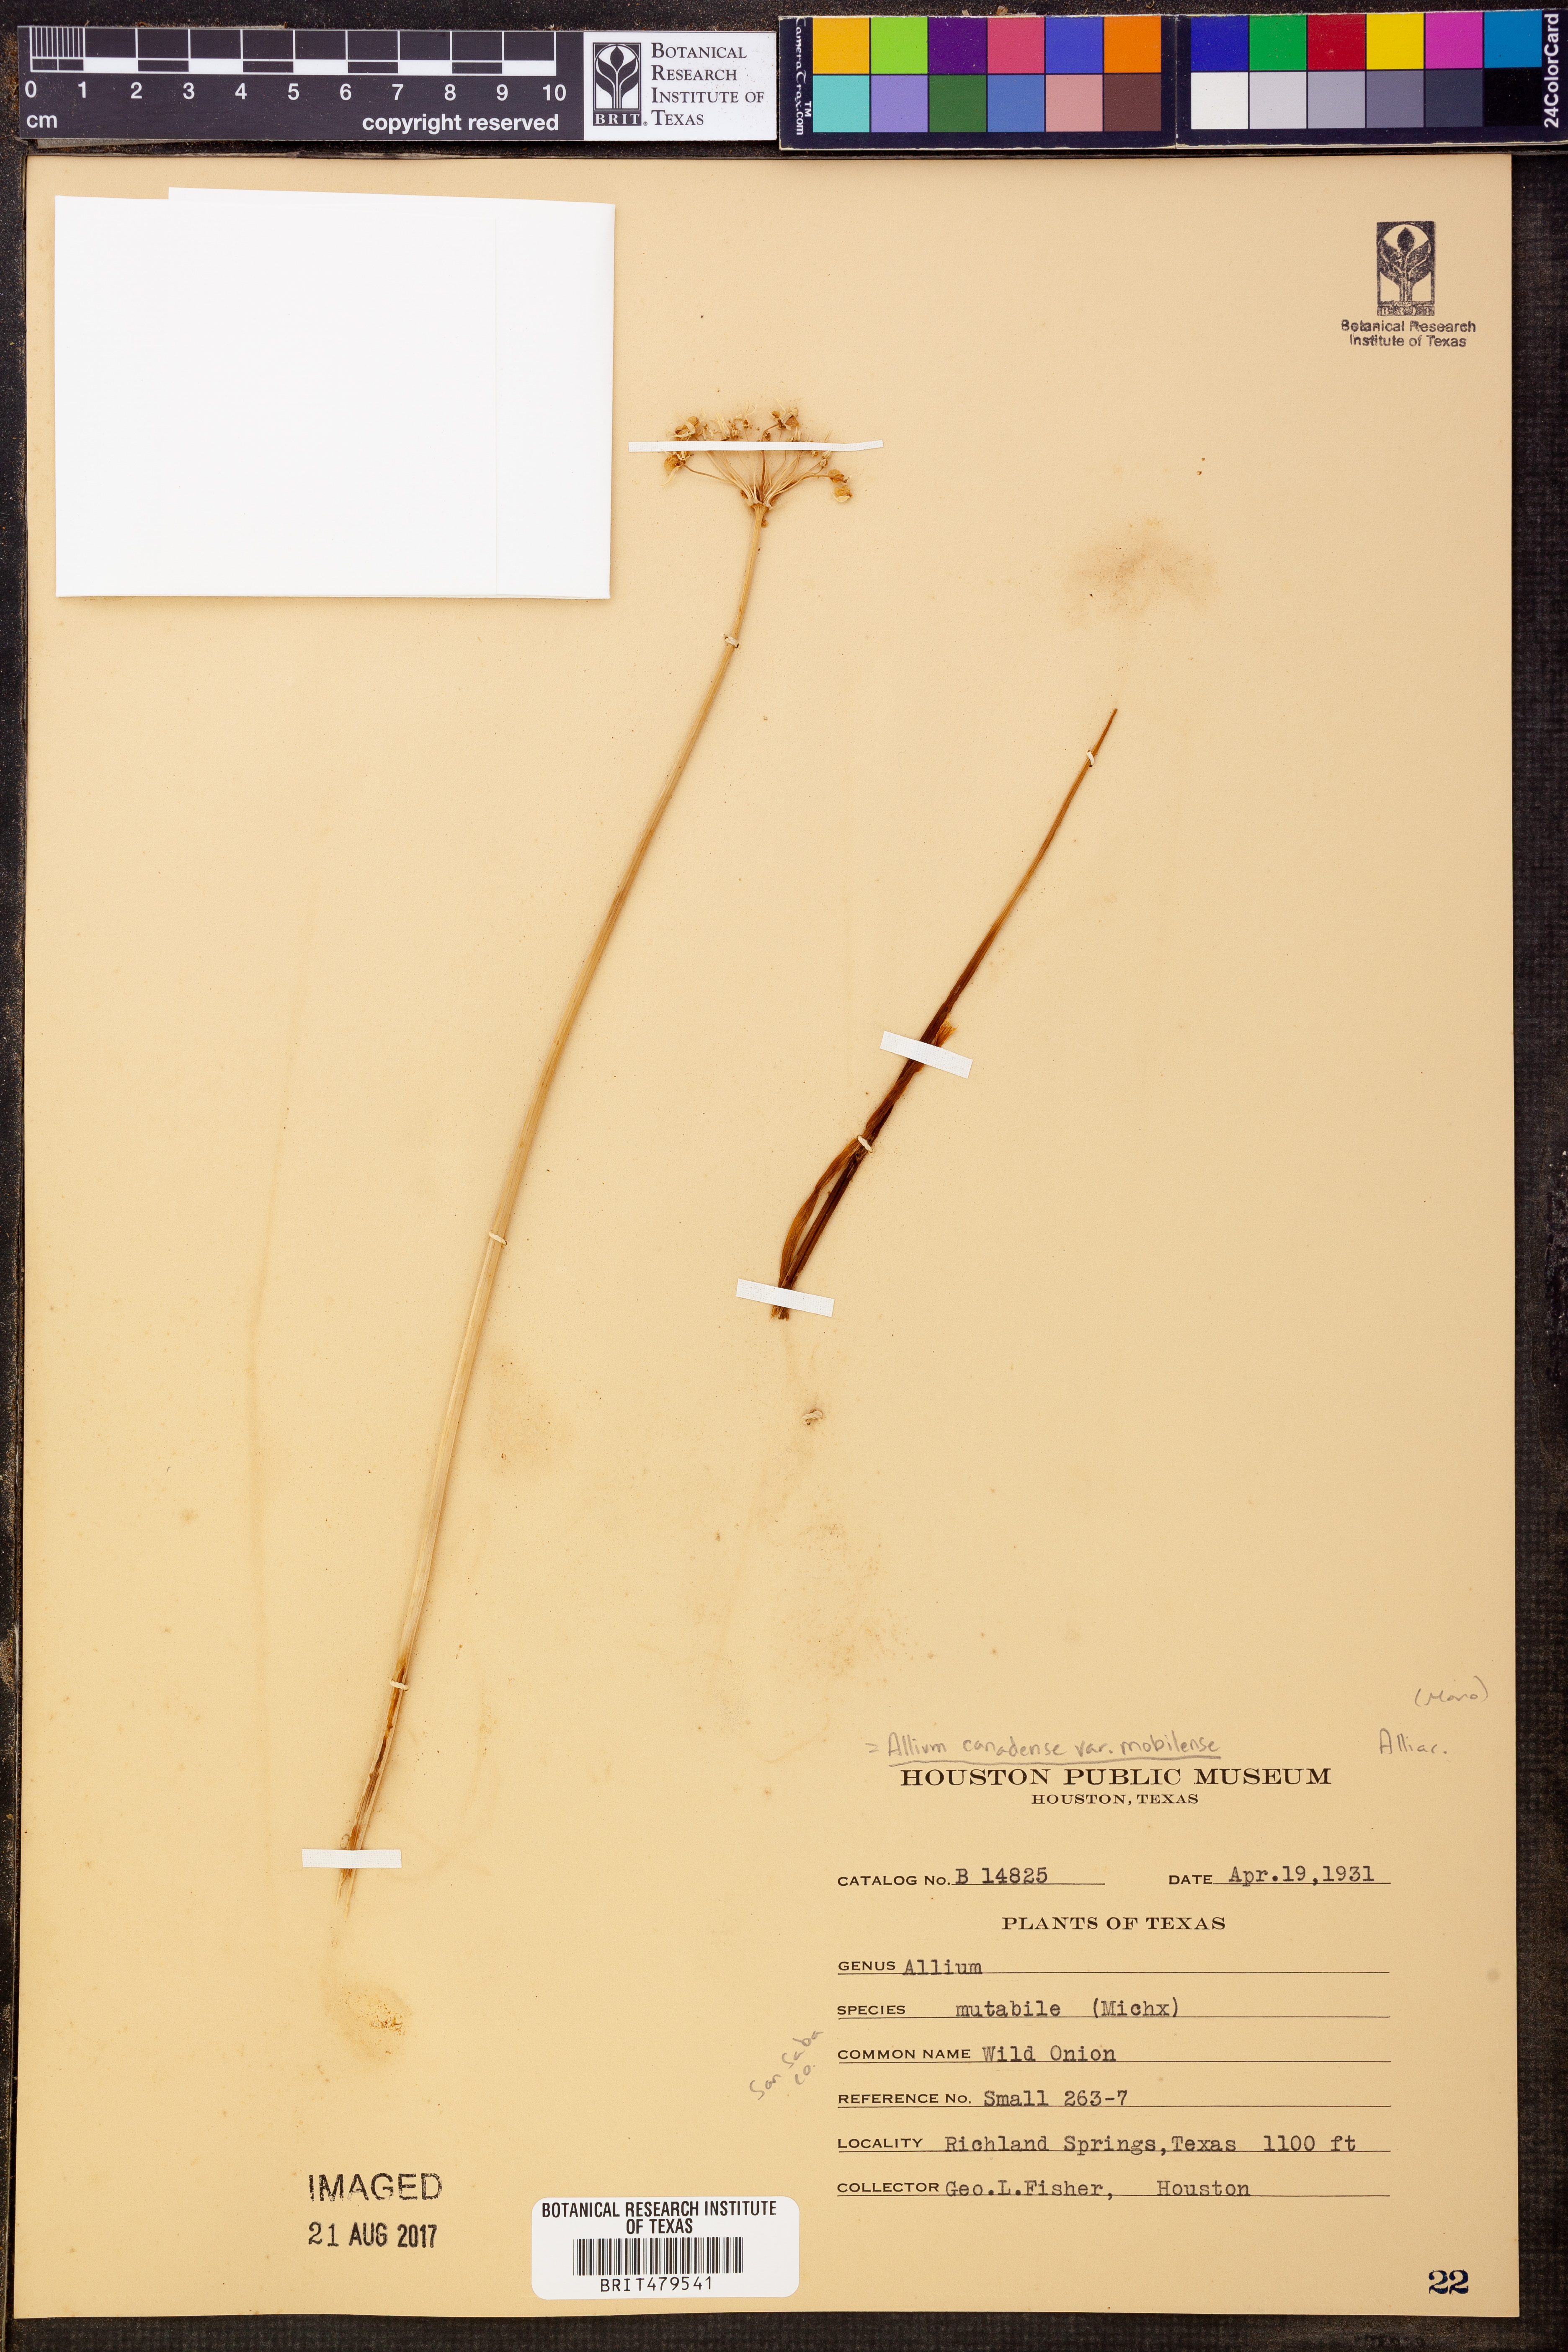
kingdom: Plantae
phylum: Tracheophyta
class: Liliopsida
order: Asparagales
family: Amaryllidaceae
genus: Allium
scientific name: Allium canadense
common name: Meadow garlic
